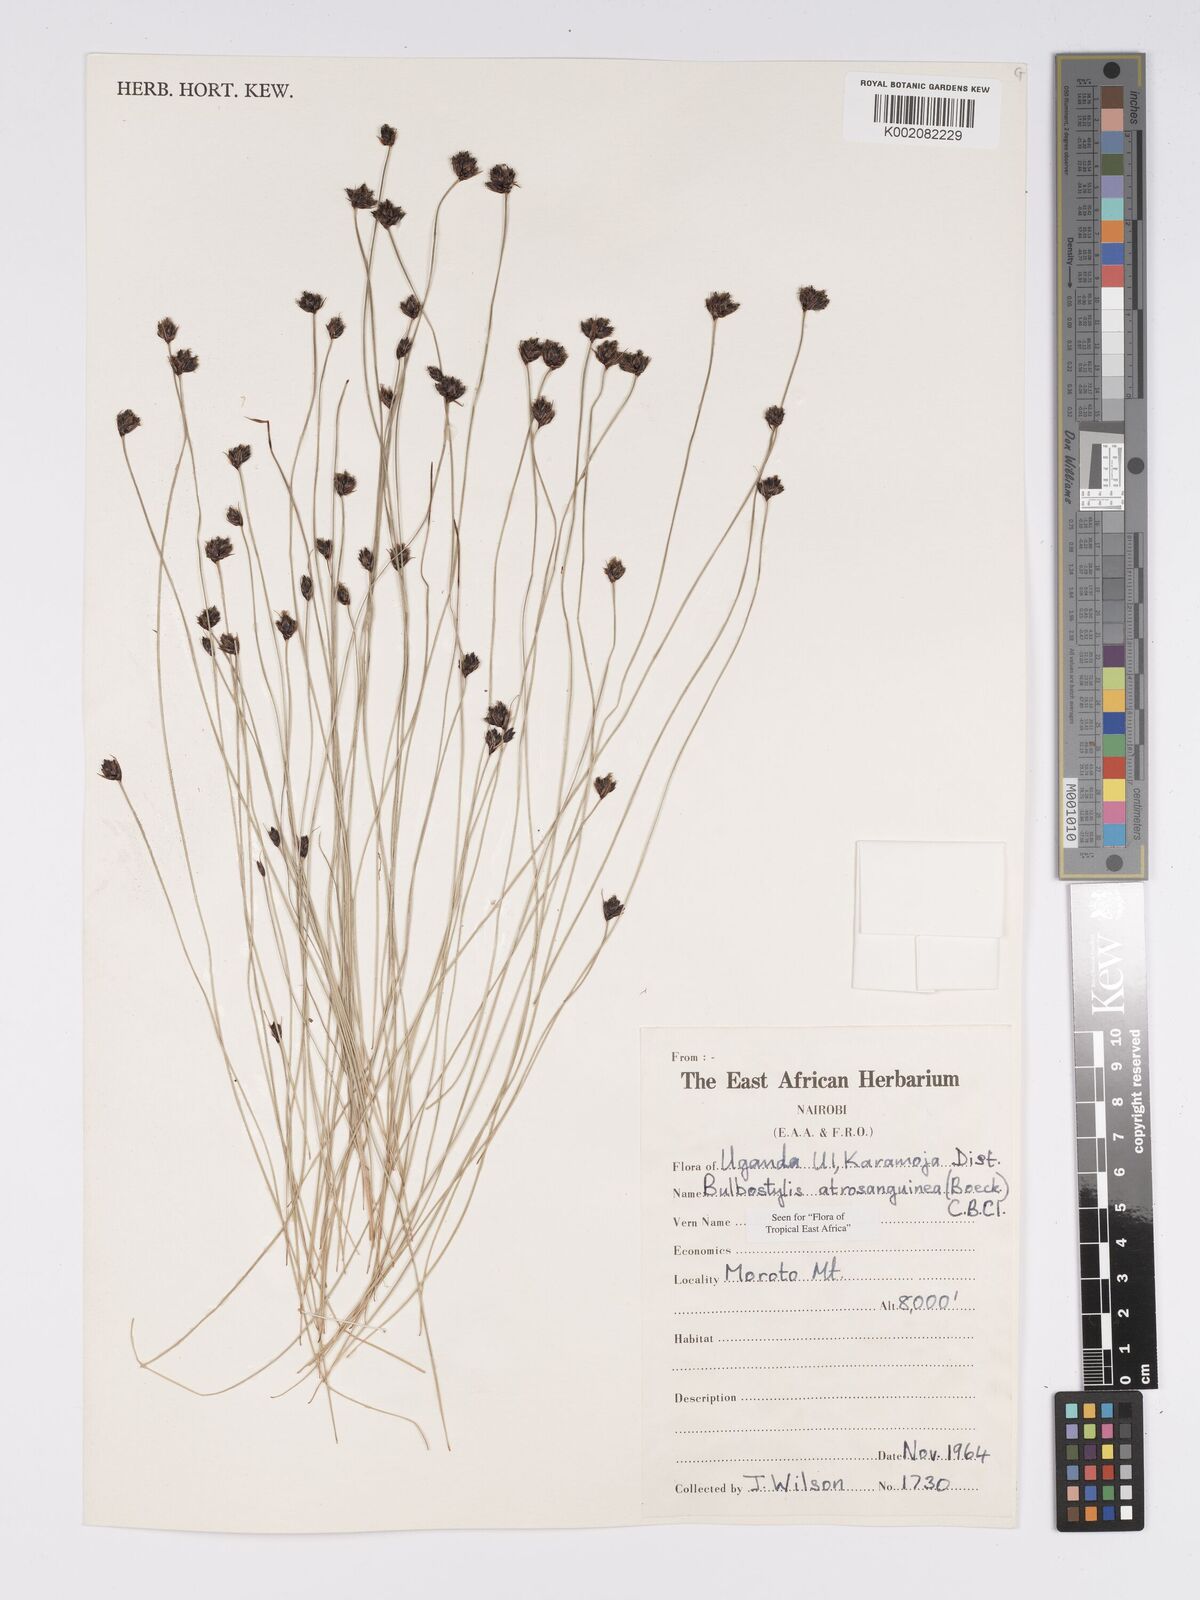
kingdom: Plantae
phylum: Tracheophyta
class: Liliopsida
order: Poales
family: Cyperaceae
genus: Bulbostylis
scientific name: Bulbostylis atrosanguinea
